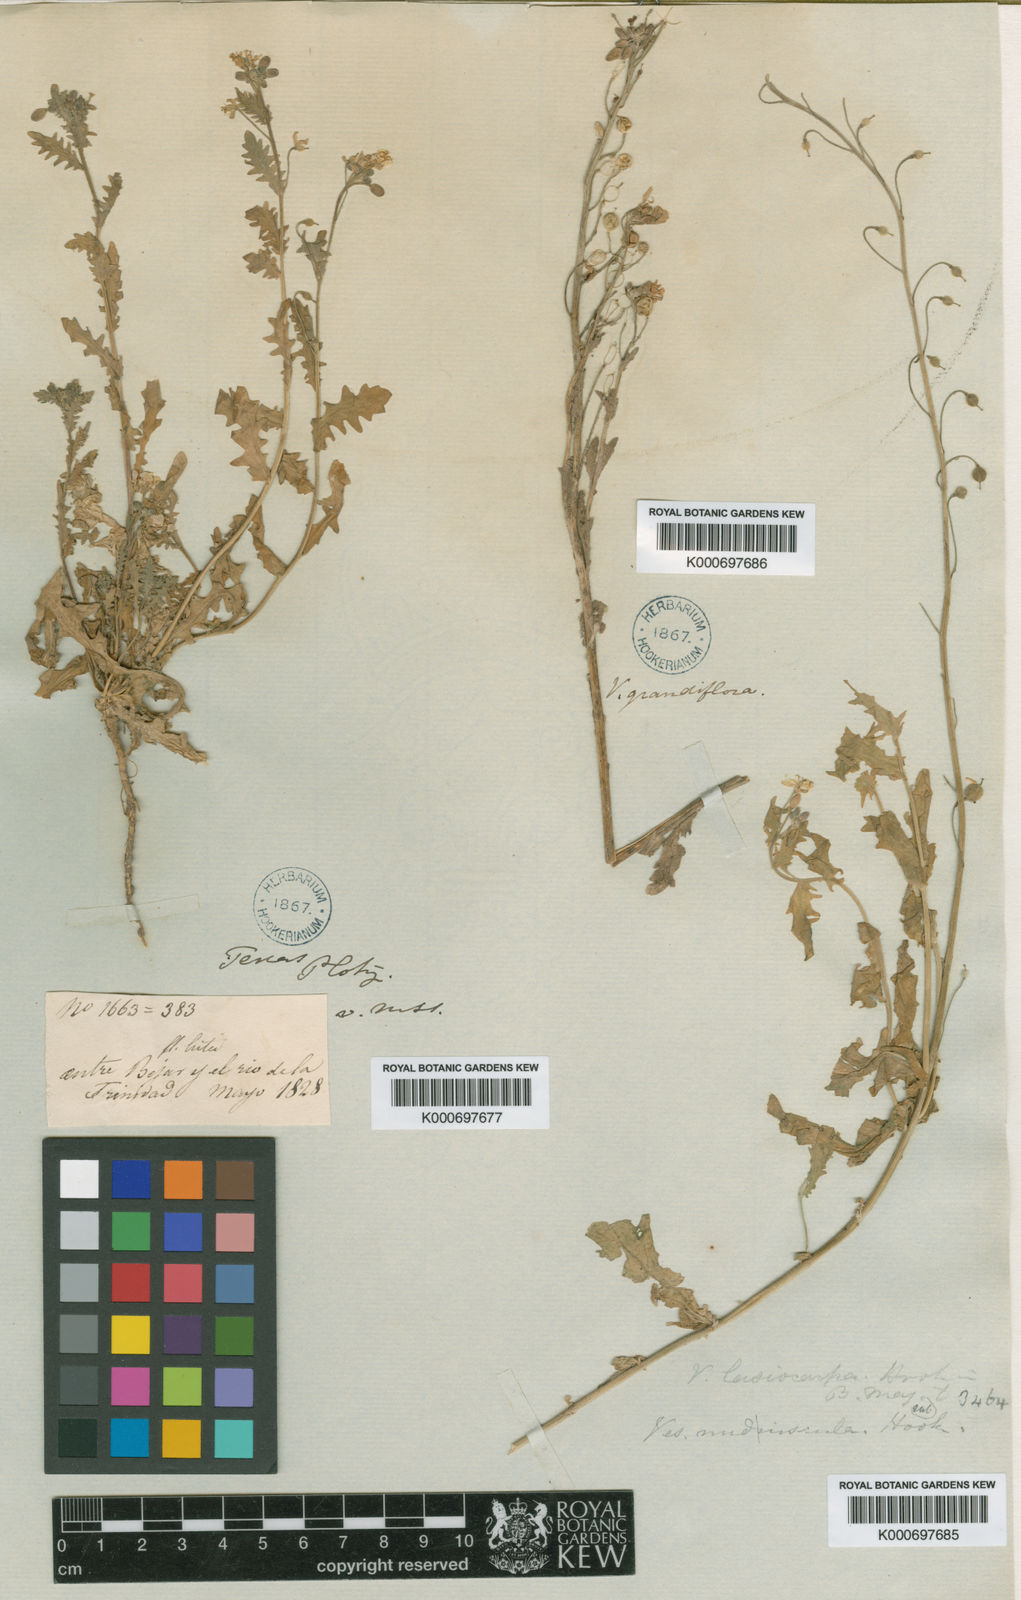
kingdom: Plantae
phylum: Tracheophyta
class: Magnoliopsida
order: Brassicales
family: Brassicaceae
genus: Paysonia
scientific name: Paysonia lasiocarpa
